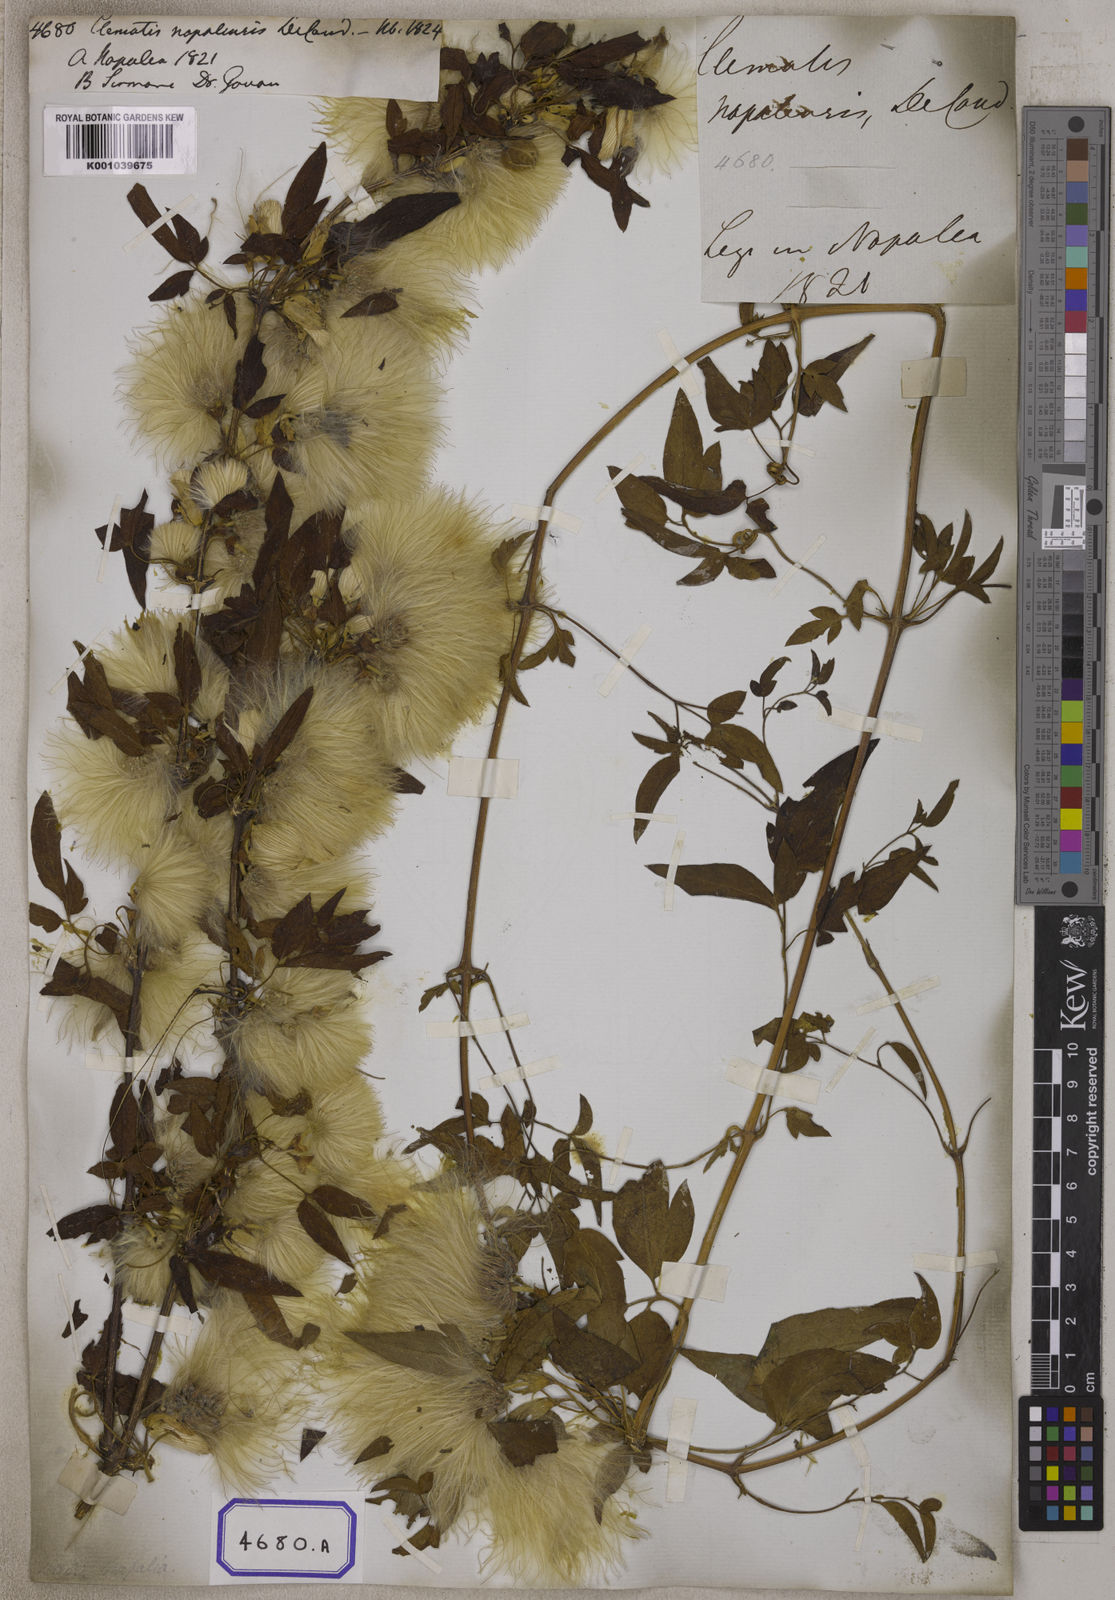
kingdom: Plantae
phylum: Tracheophyta
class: Magnoliopsida
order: Ranunculales
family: Ranunculaceae
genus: Clematis
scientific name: Clematis barbellata
